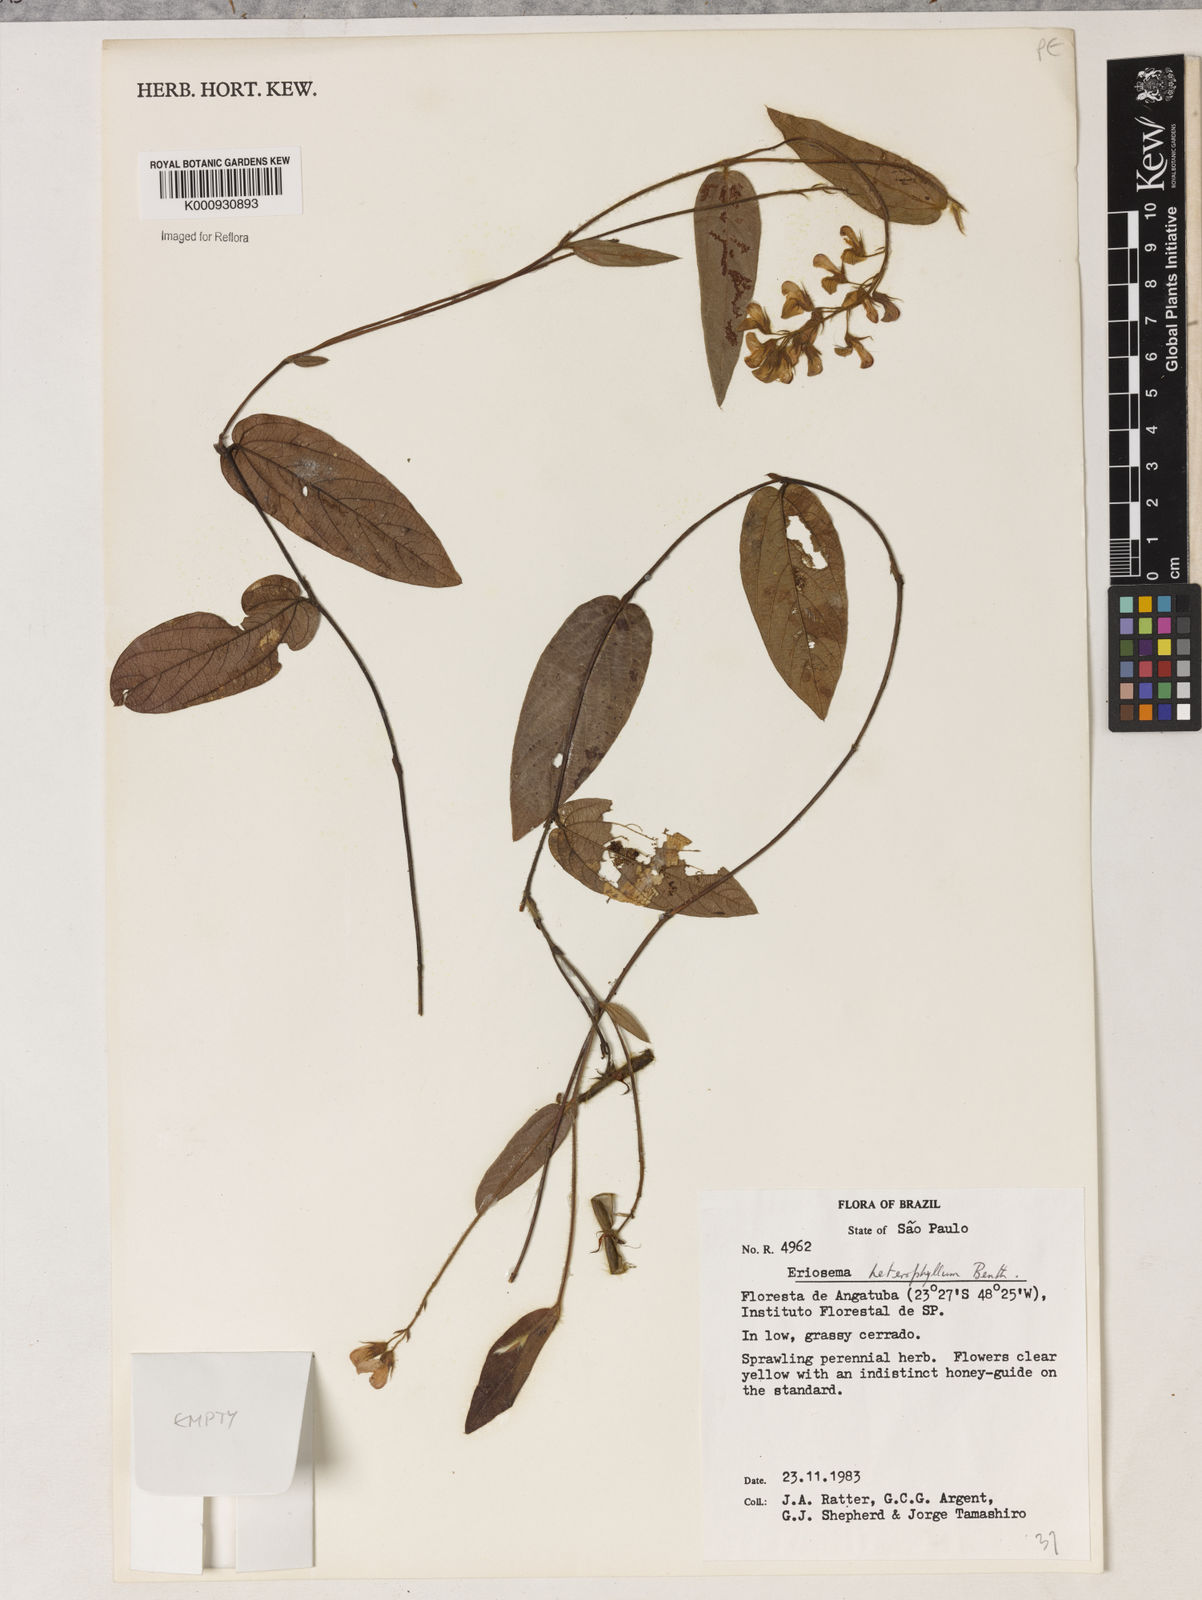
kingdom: Plantae
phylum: Tracheophyta
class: Magnoliopsida
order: Fabales
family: Fabaceae
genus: Eriosema
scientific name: Eriosema heterophyllum
